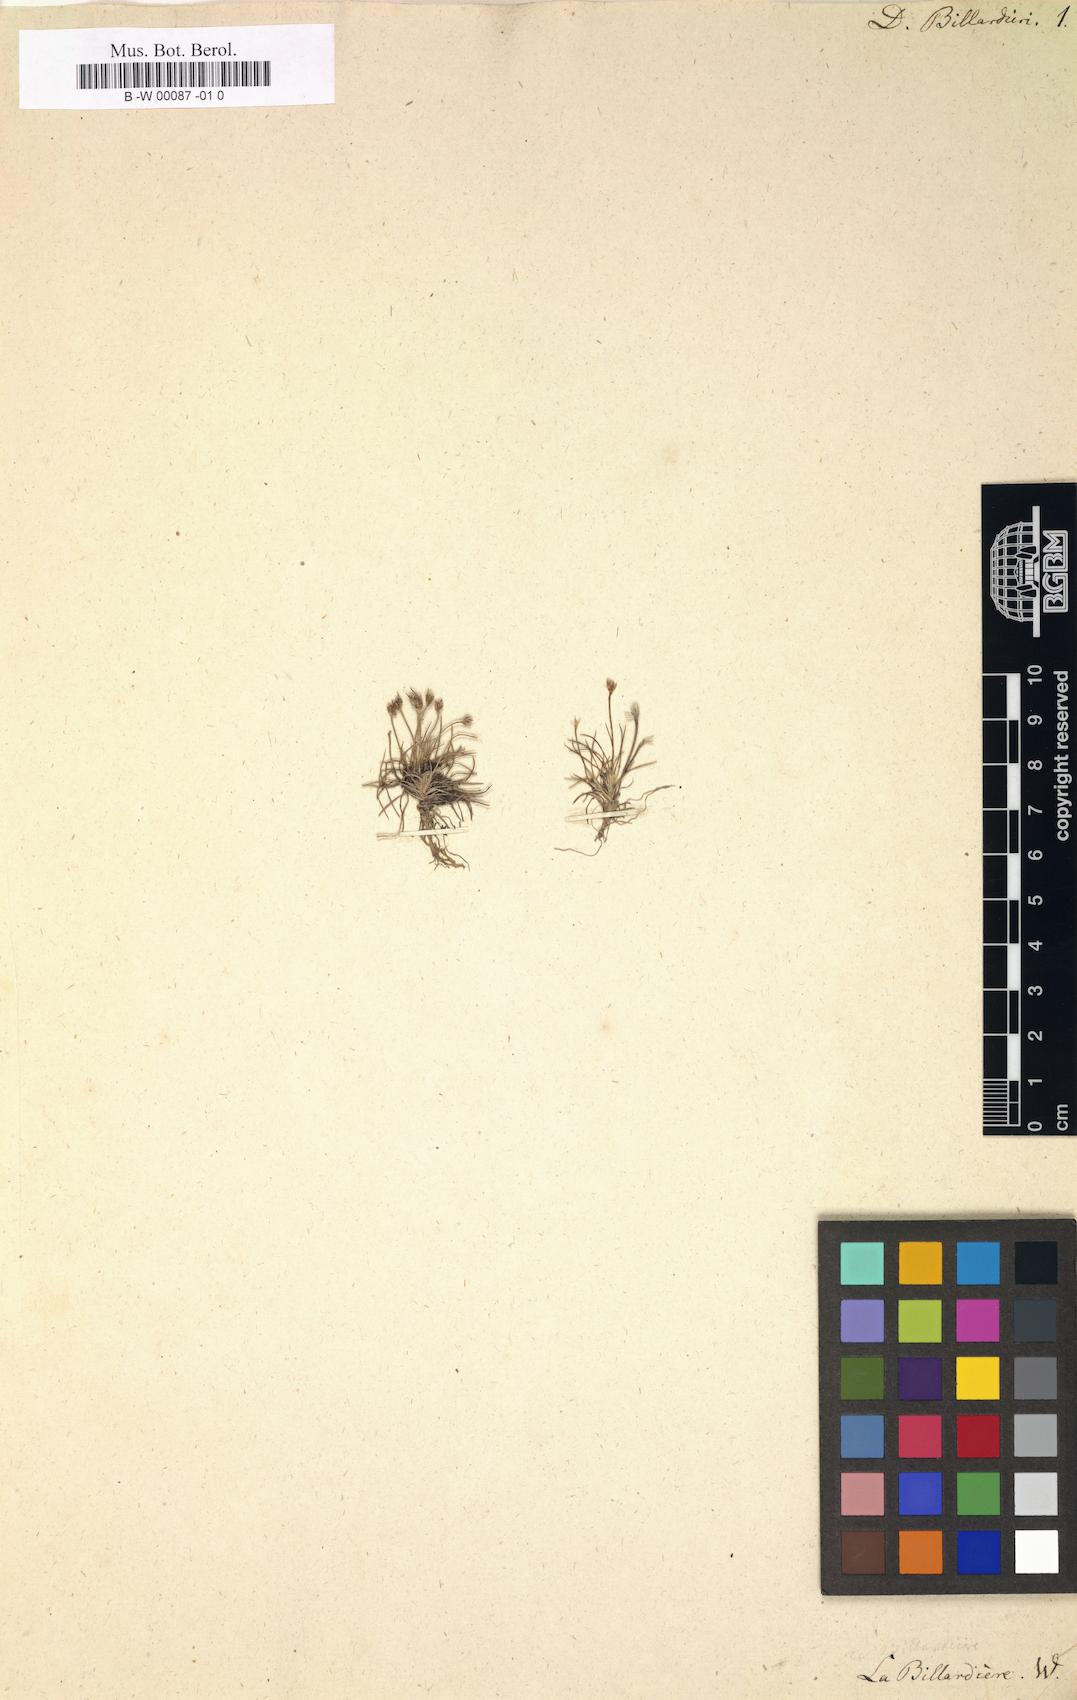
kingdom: Plantae
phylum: Tracheophyta
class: Liliopsida
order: Poales
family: Restionaceae
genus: Centrolepis
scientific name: Centrolepis fascicularis
